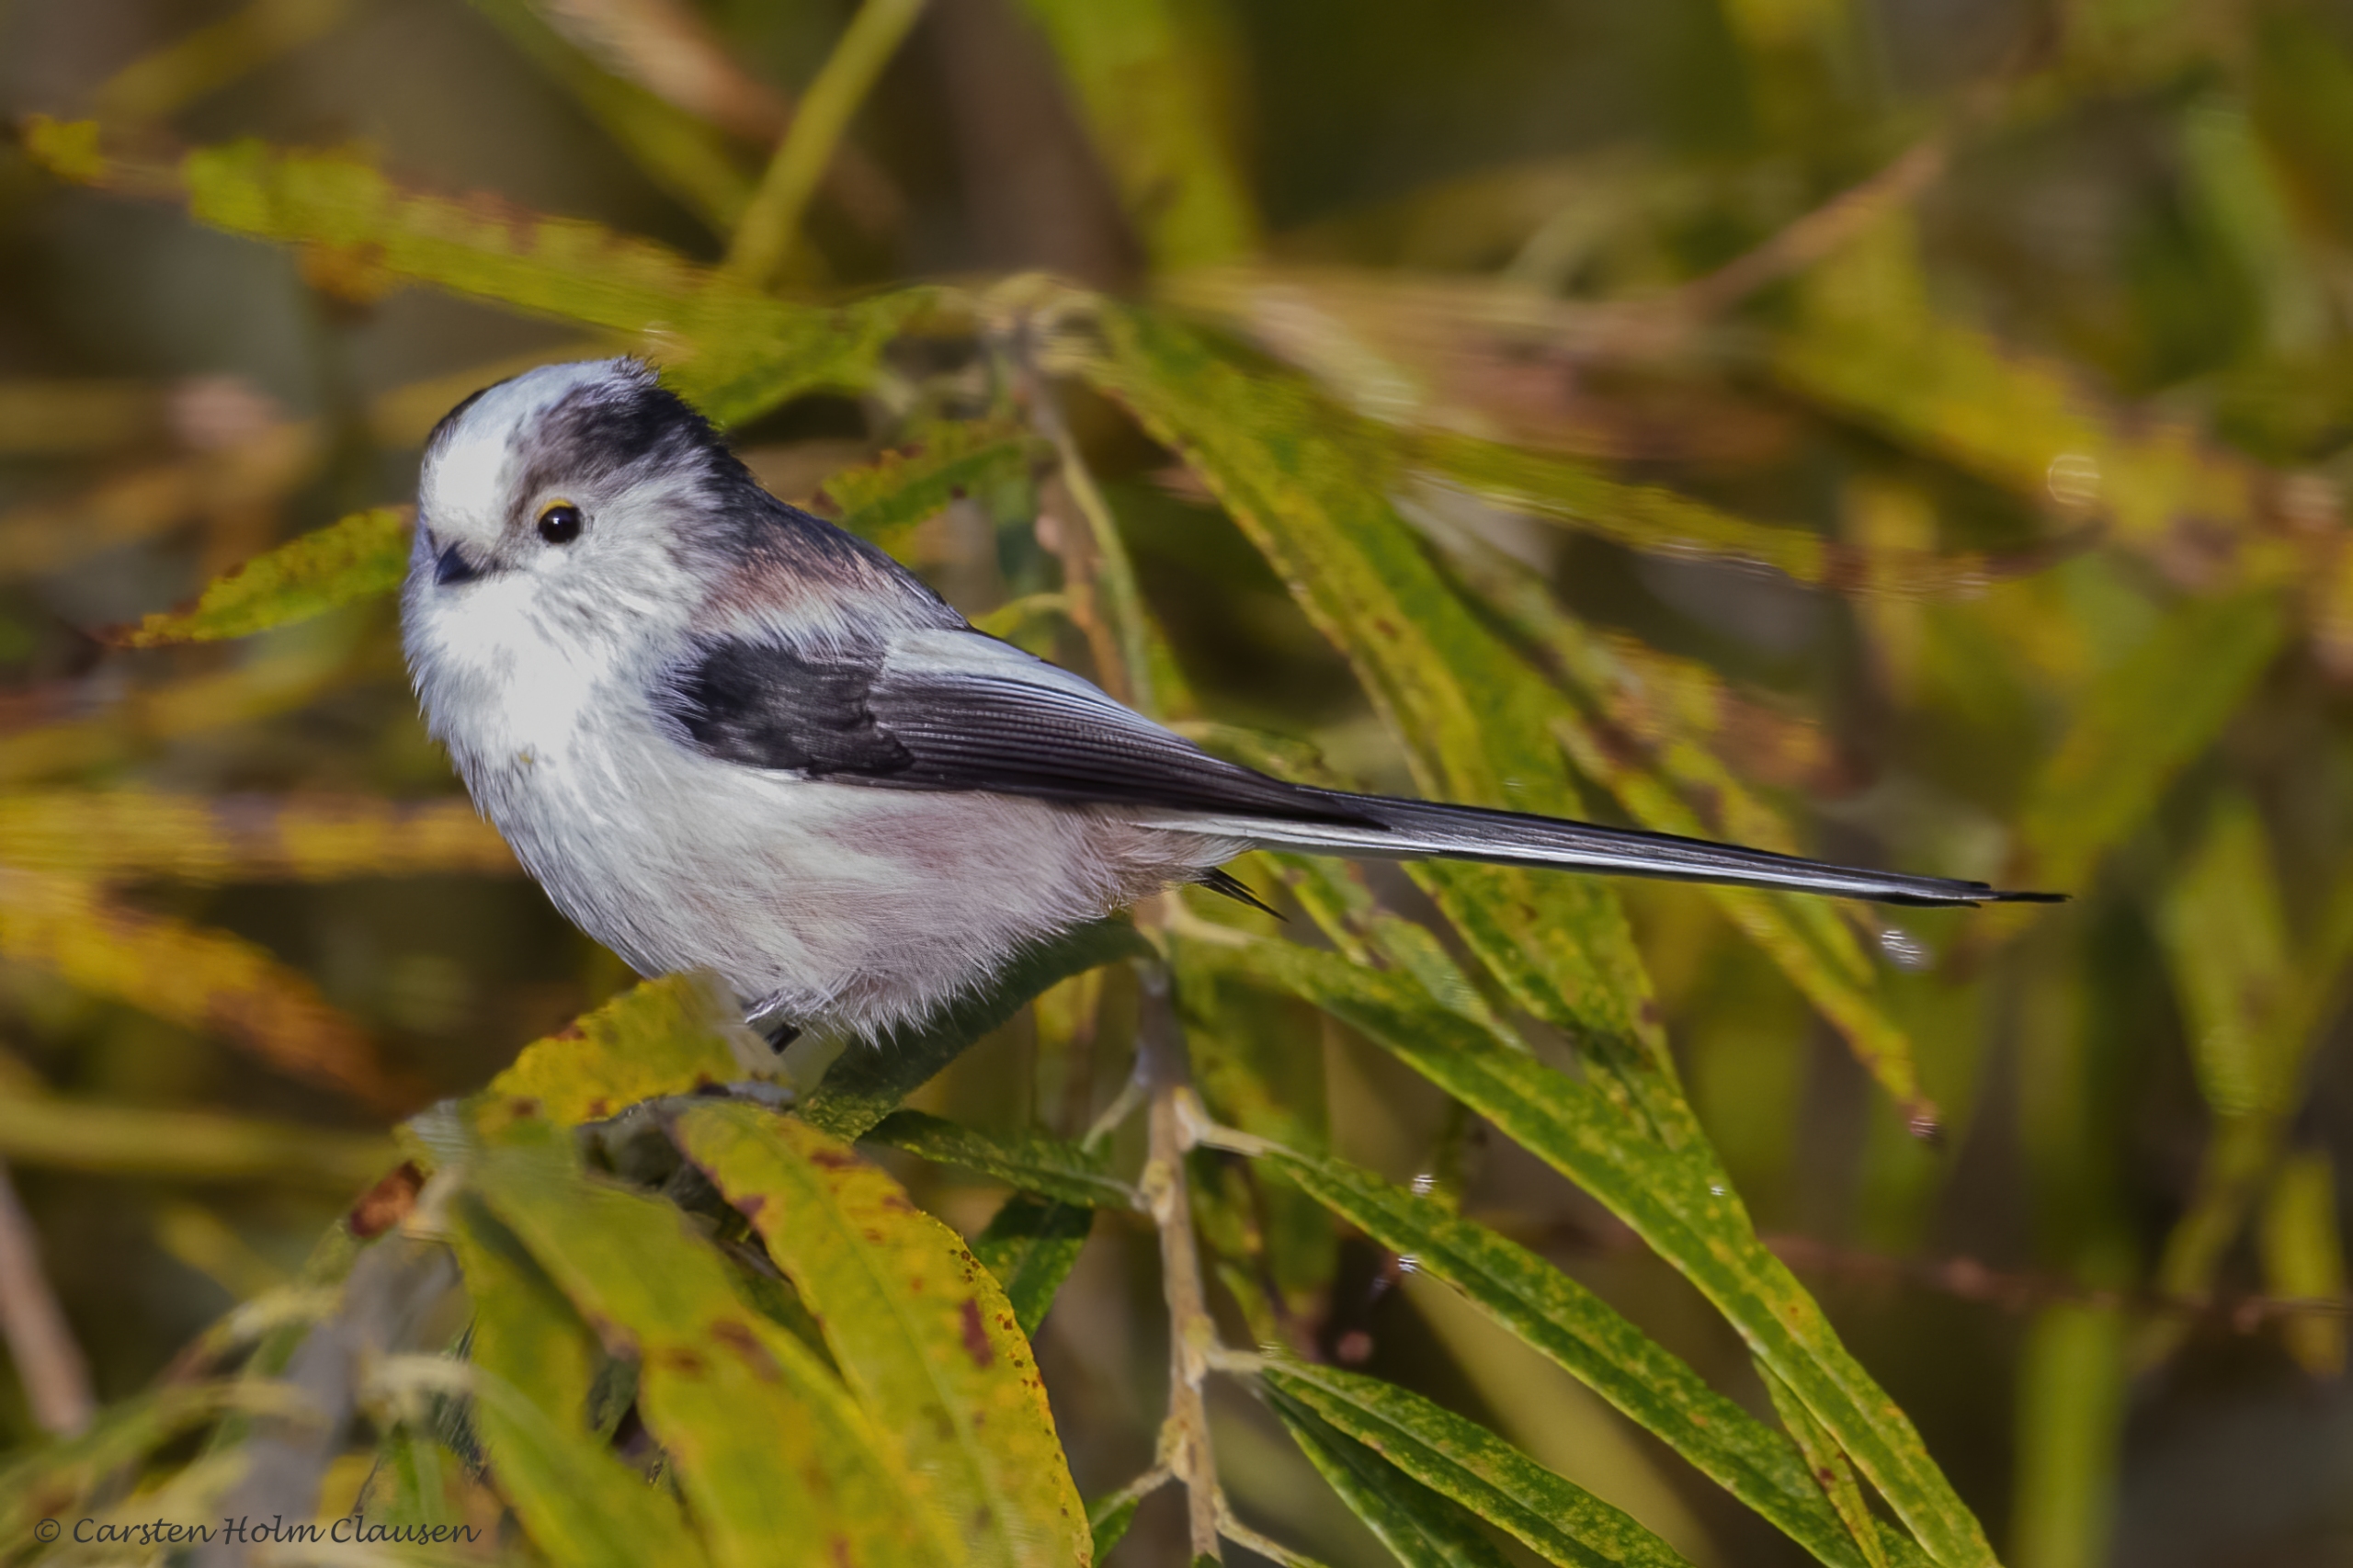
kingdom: Animalia
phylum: Chordata
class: Aves
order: Passeriformes
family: Aegithalidae
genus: Aegithalos
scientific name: Aegithalos caudatus
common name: Sydlig halemejse
